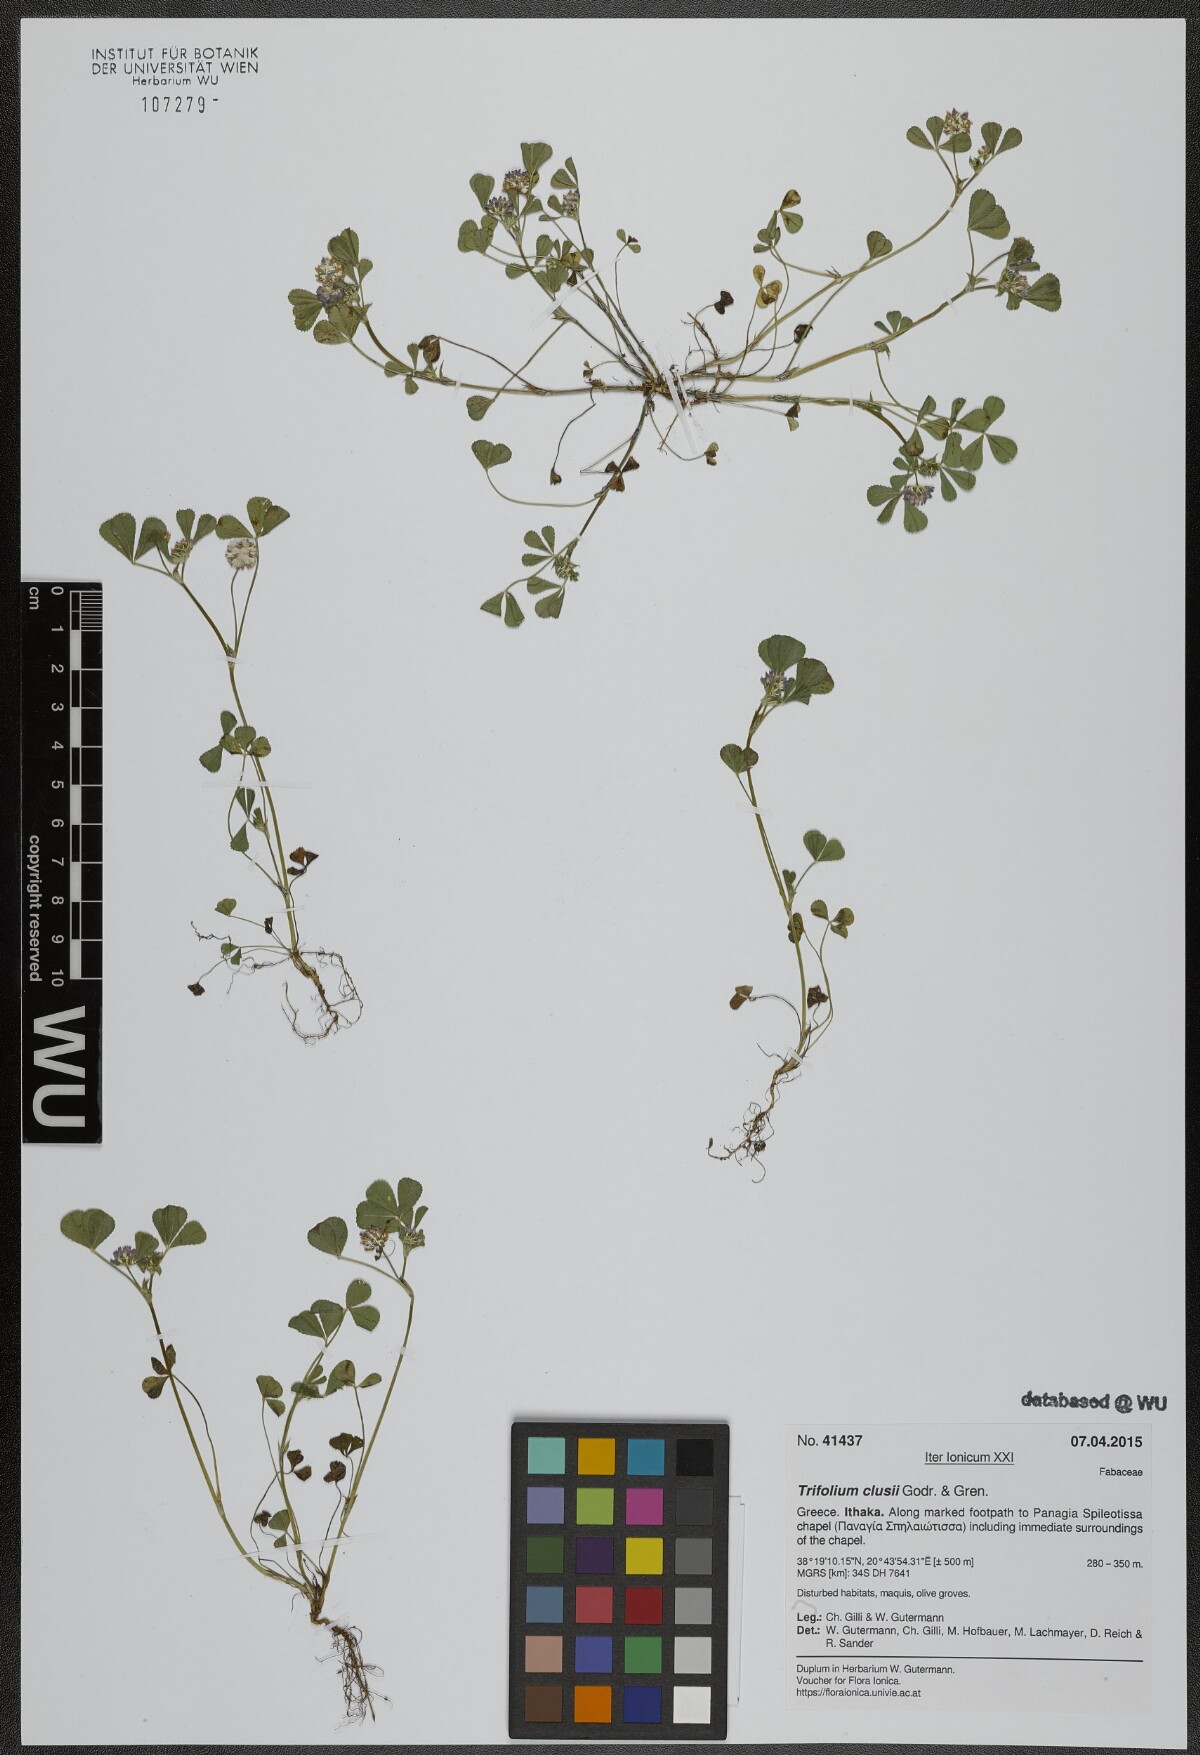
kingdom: Plantae
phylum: Tracheophyta
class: Magnoliopsida
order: Fabales
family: Fabaceae
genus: Trifolium
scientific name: Trifolium clusii
